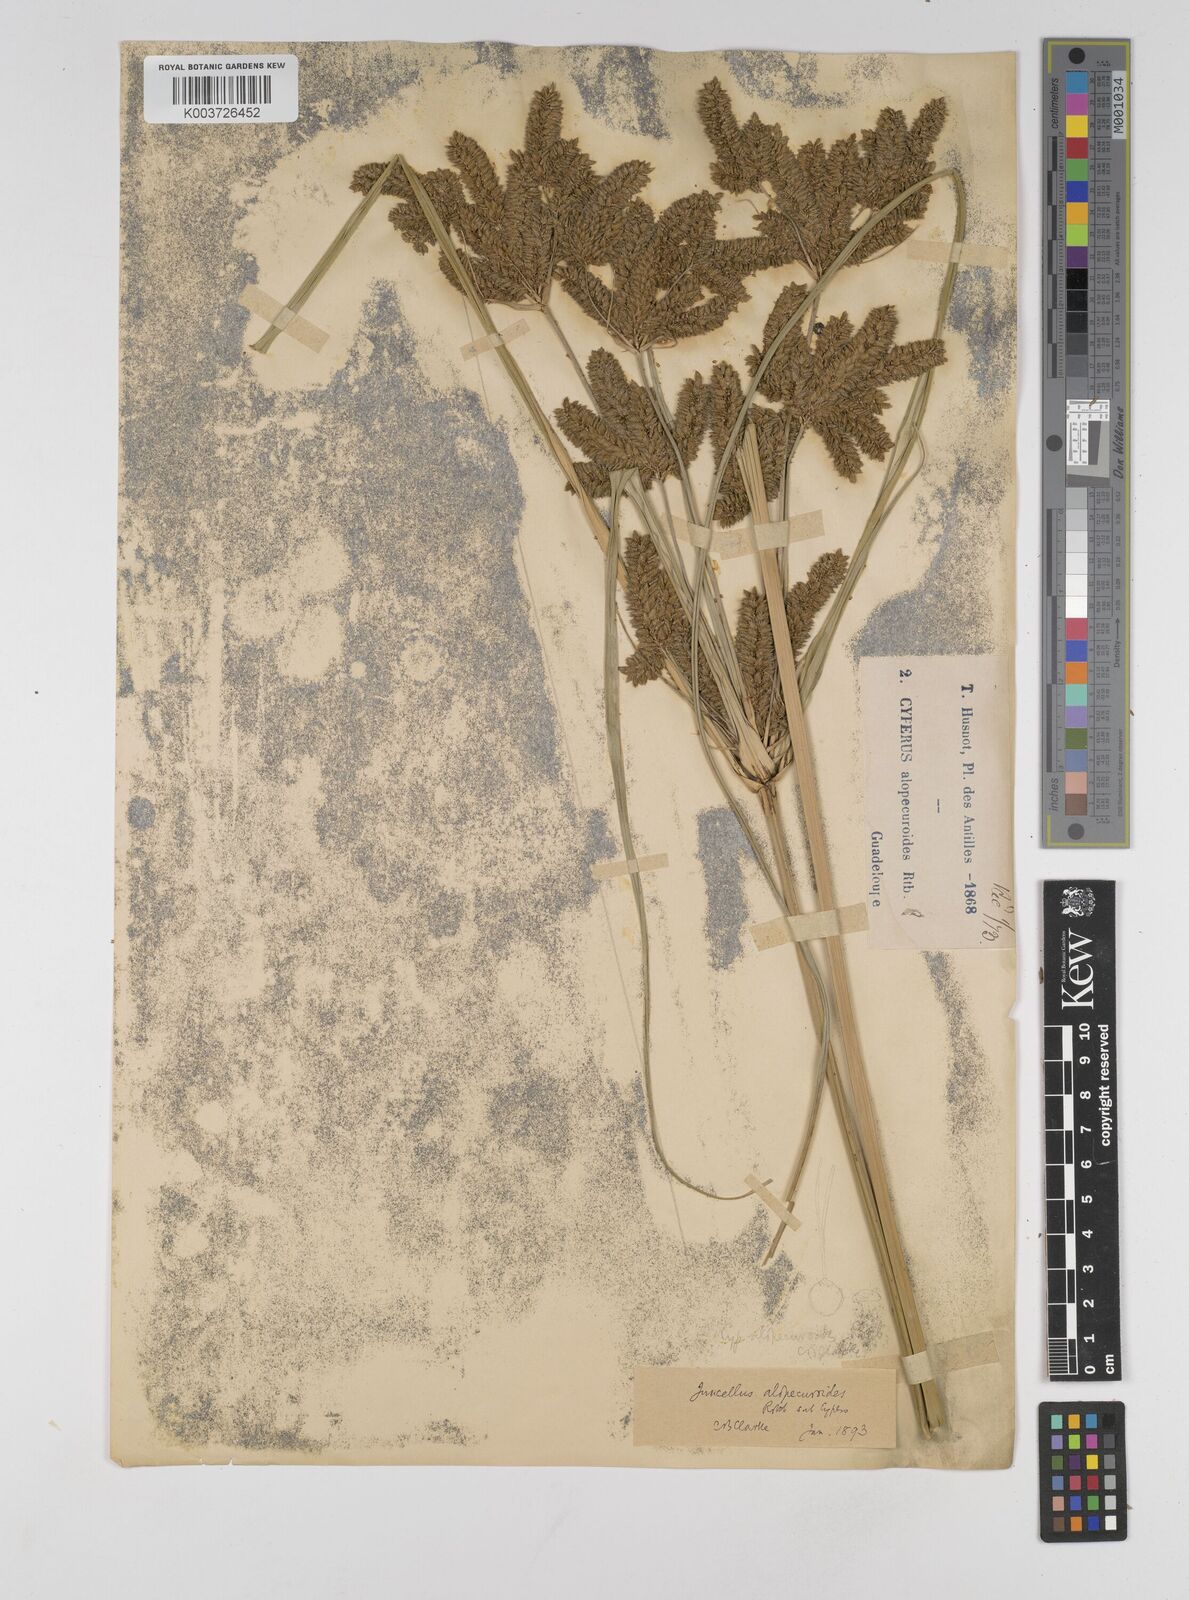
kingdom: Plantae
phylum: Tracheophyta
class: Liliopsida
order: Poales
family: Cyperaceae
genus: Cyperus
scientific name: Cyperus alopecuroides
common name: Foxtail flatsedge
